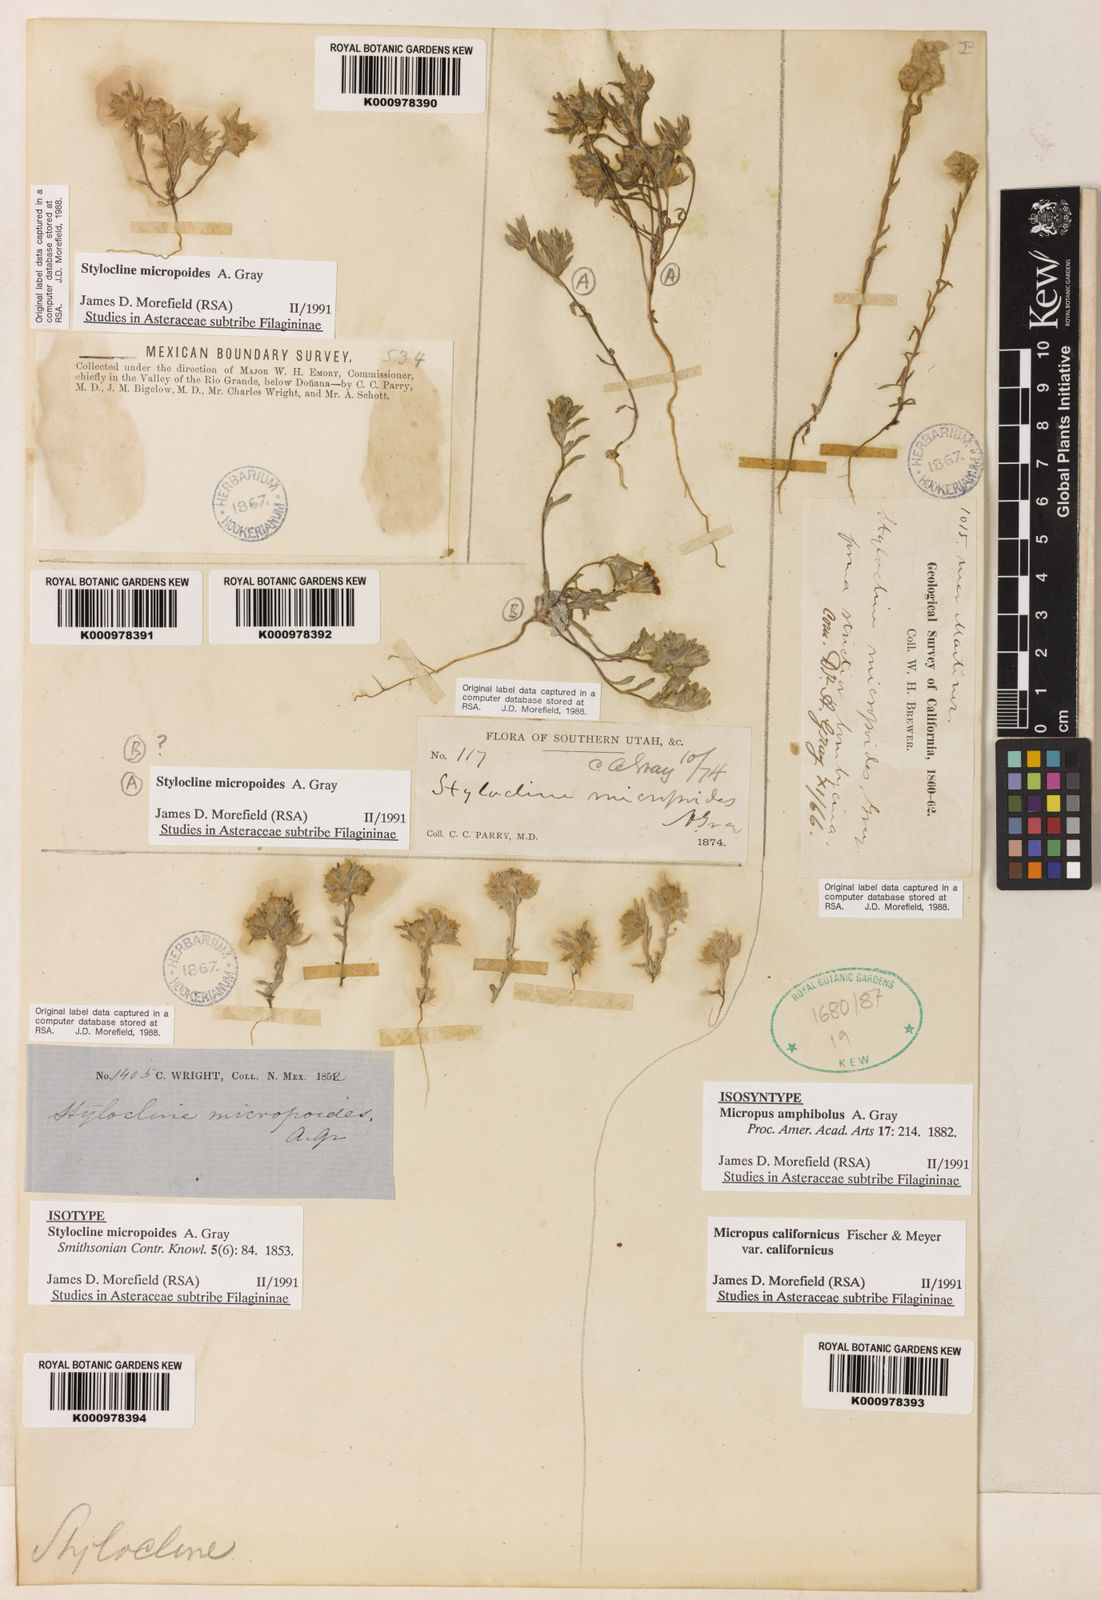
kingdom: Plantae
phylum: Tracheophyta
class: Magnoliopsida
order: Asterales
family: Asteraceae
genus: Stylocline
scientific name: Stylocline micropoides
